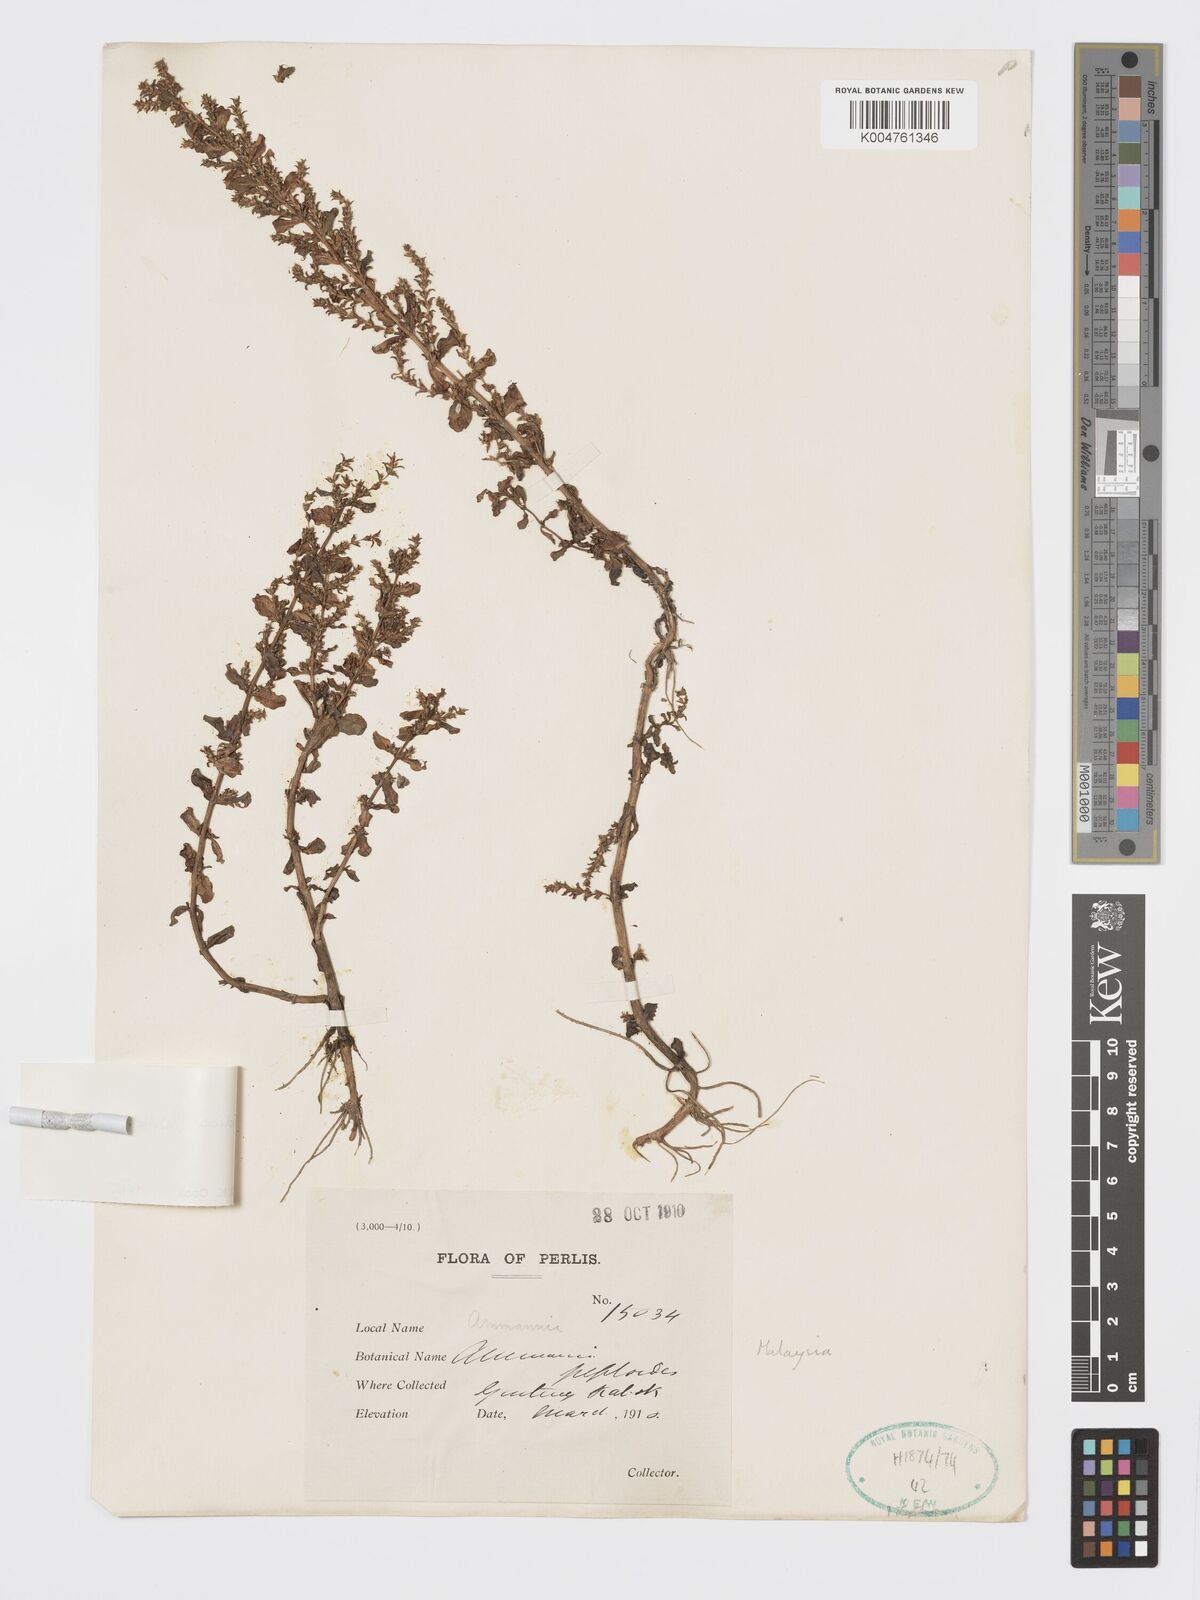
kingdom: Plantae
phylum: Tracheophyta
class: Magnoliopsida
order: Myrtales
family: Lythraceae
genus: Rotala
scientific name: Rotala indica
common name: Indian toothcup
